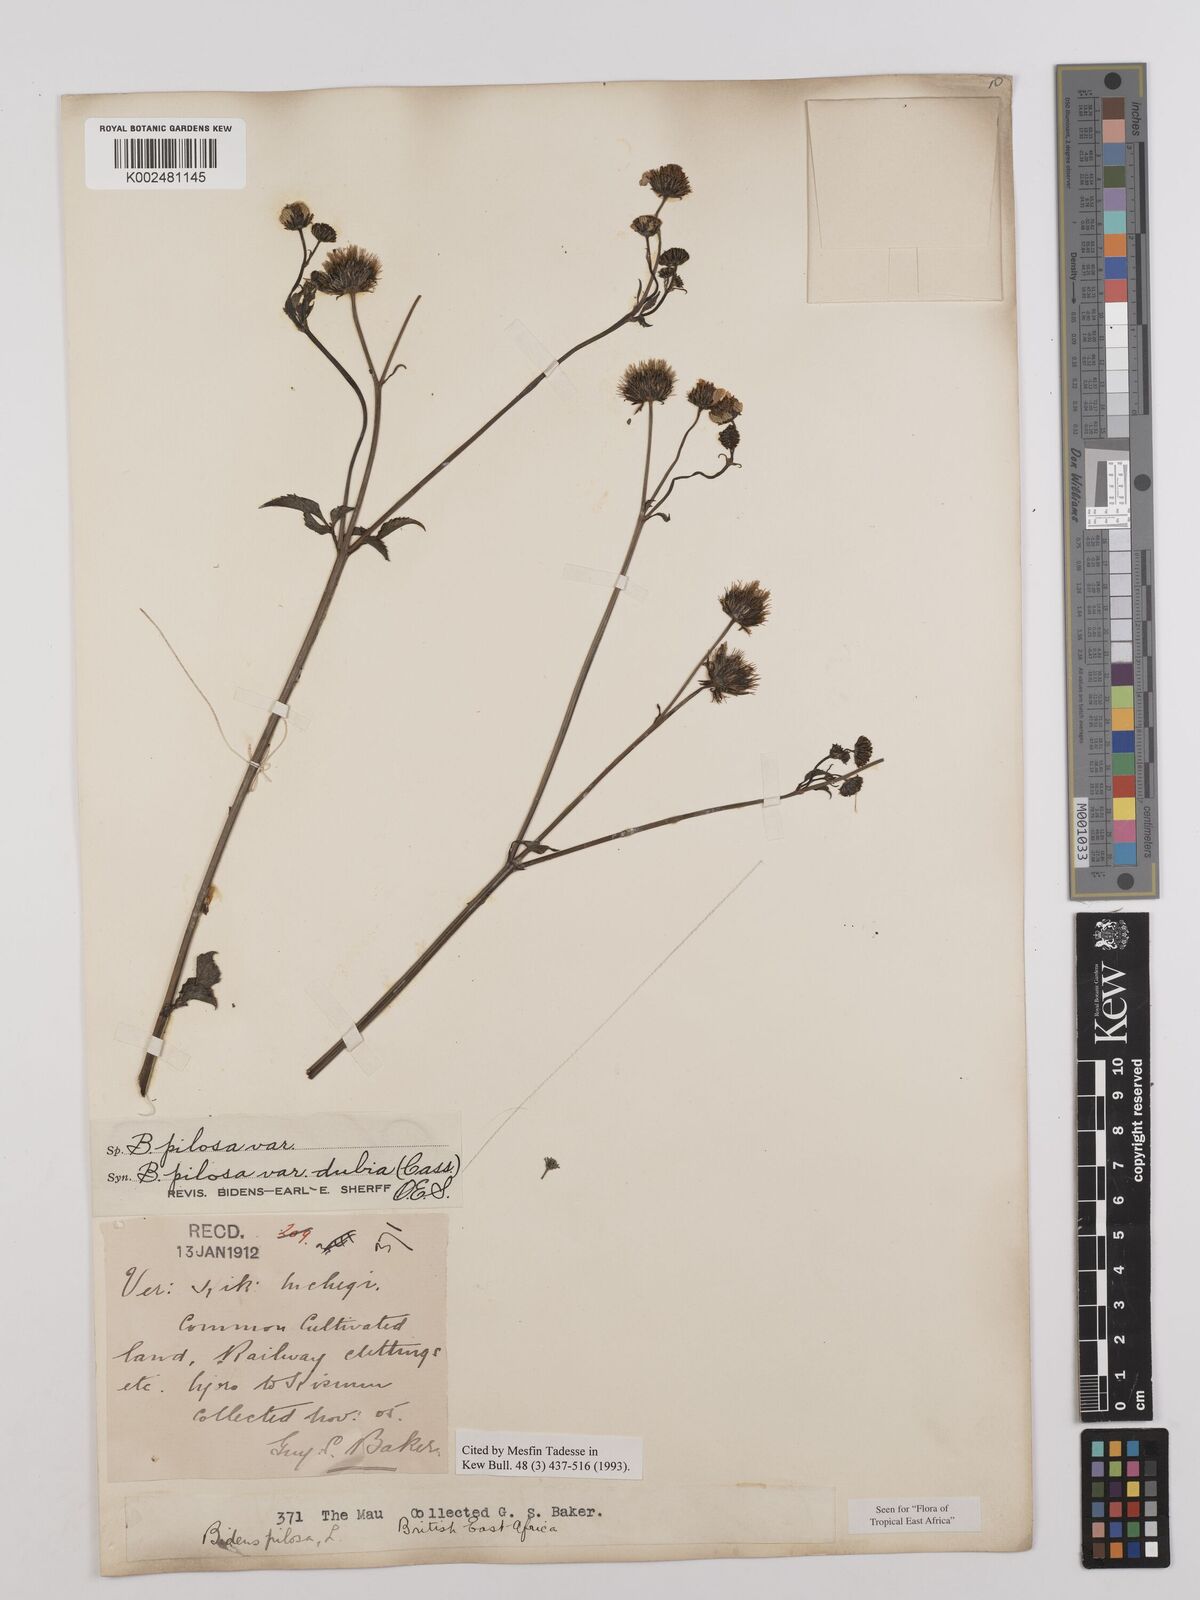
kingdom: Plantae
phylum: Tracheophyta
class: Magnoliopsida
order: Asterales
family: Asteraceae
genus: Bidens
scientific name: Bidens pilosa
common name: Black-jack
